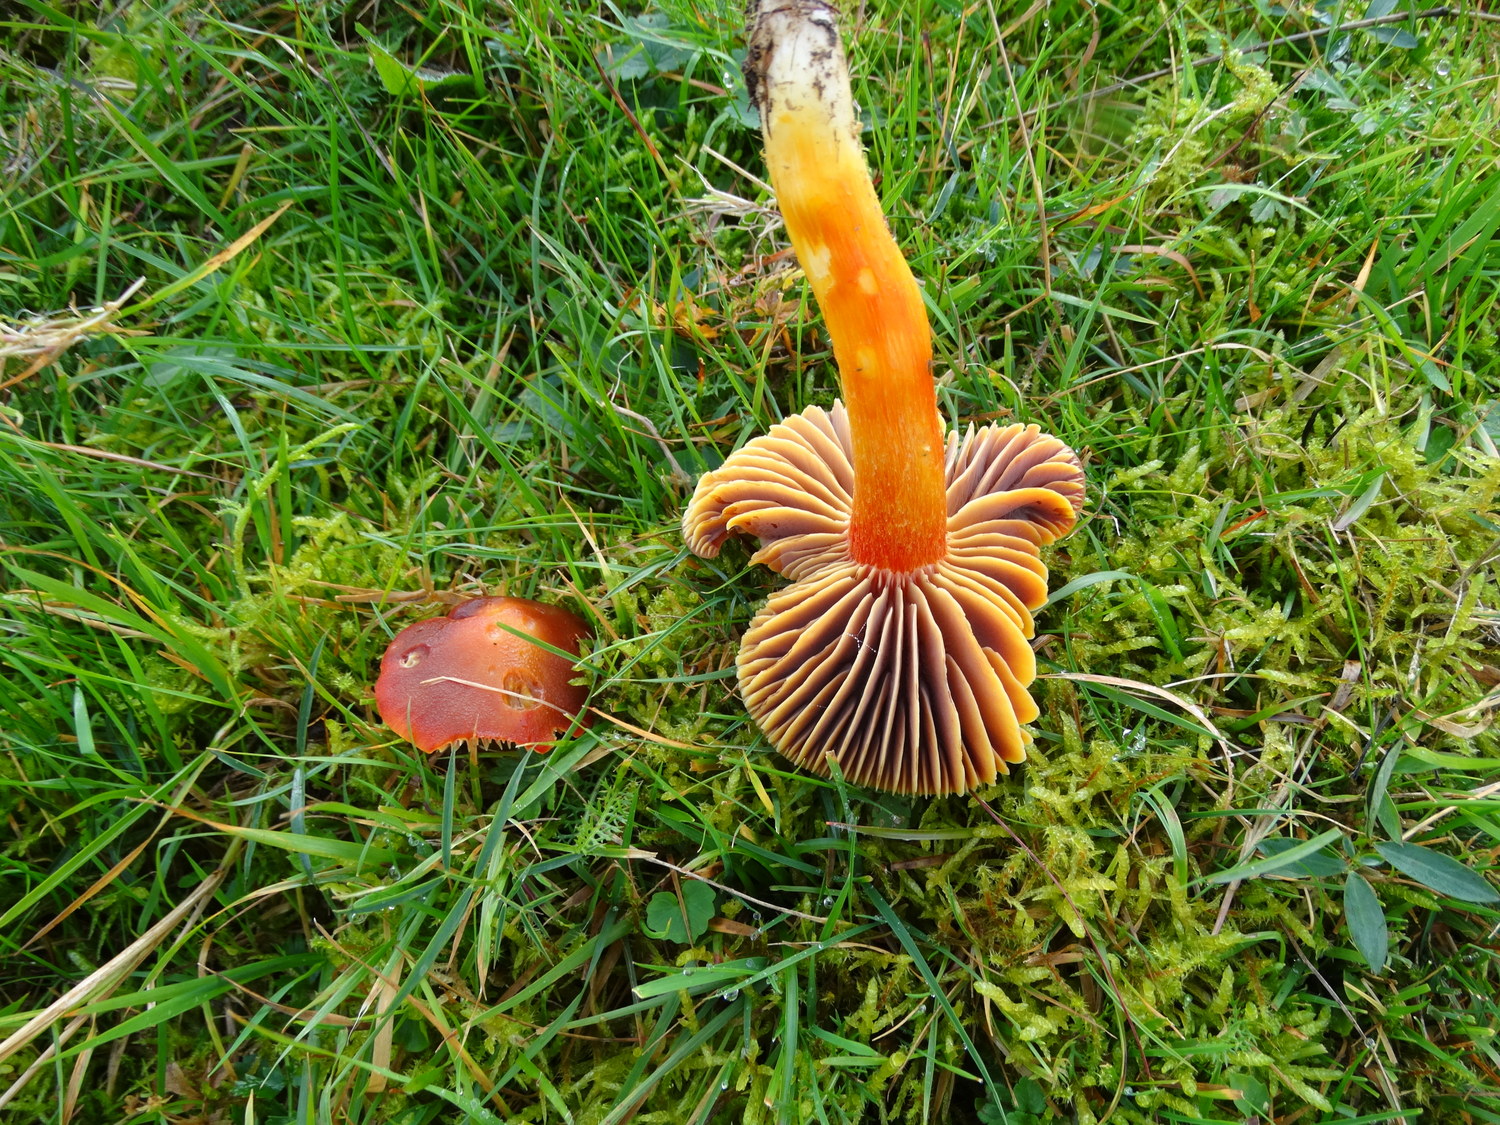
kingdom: Fungi
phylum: Basidiomycota
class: Agaricomycetes
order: Agaricales
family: Hygrophoraceae
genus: Hygrocybe
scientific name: Hygrocybe punicea
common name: skarlagen-vokshat
